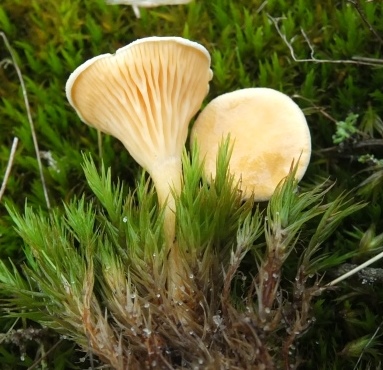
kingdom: Fungi
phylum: Basidiomycota
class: Agaricomycetes
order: Boletales
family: Hygrophoropsidaceae
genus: Hygrophoropsis
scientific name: Hygrophoropsis pallida
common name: bleg orangekantarel
